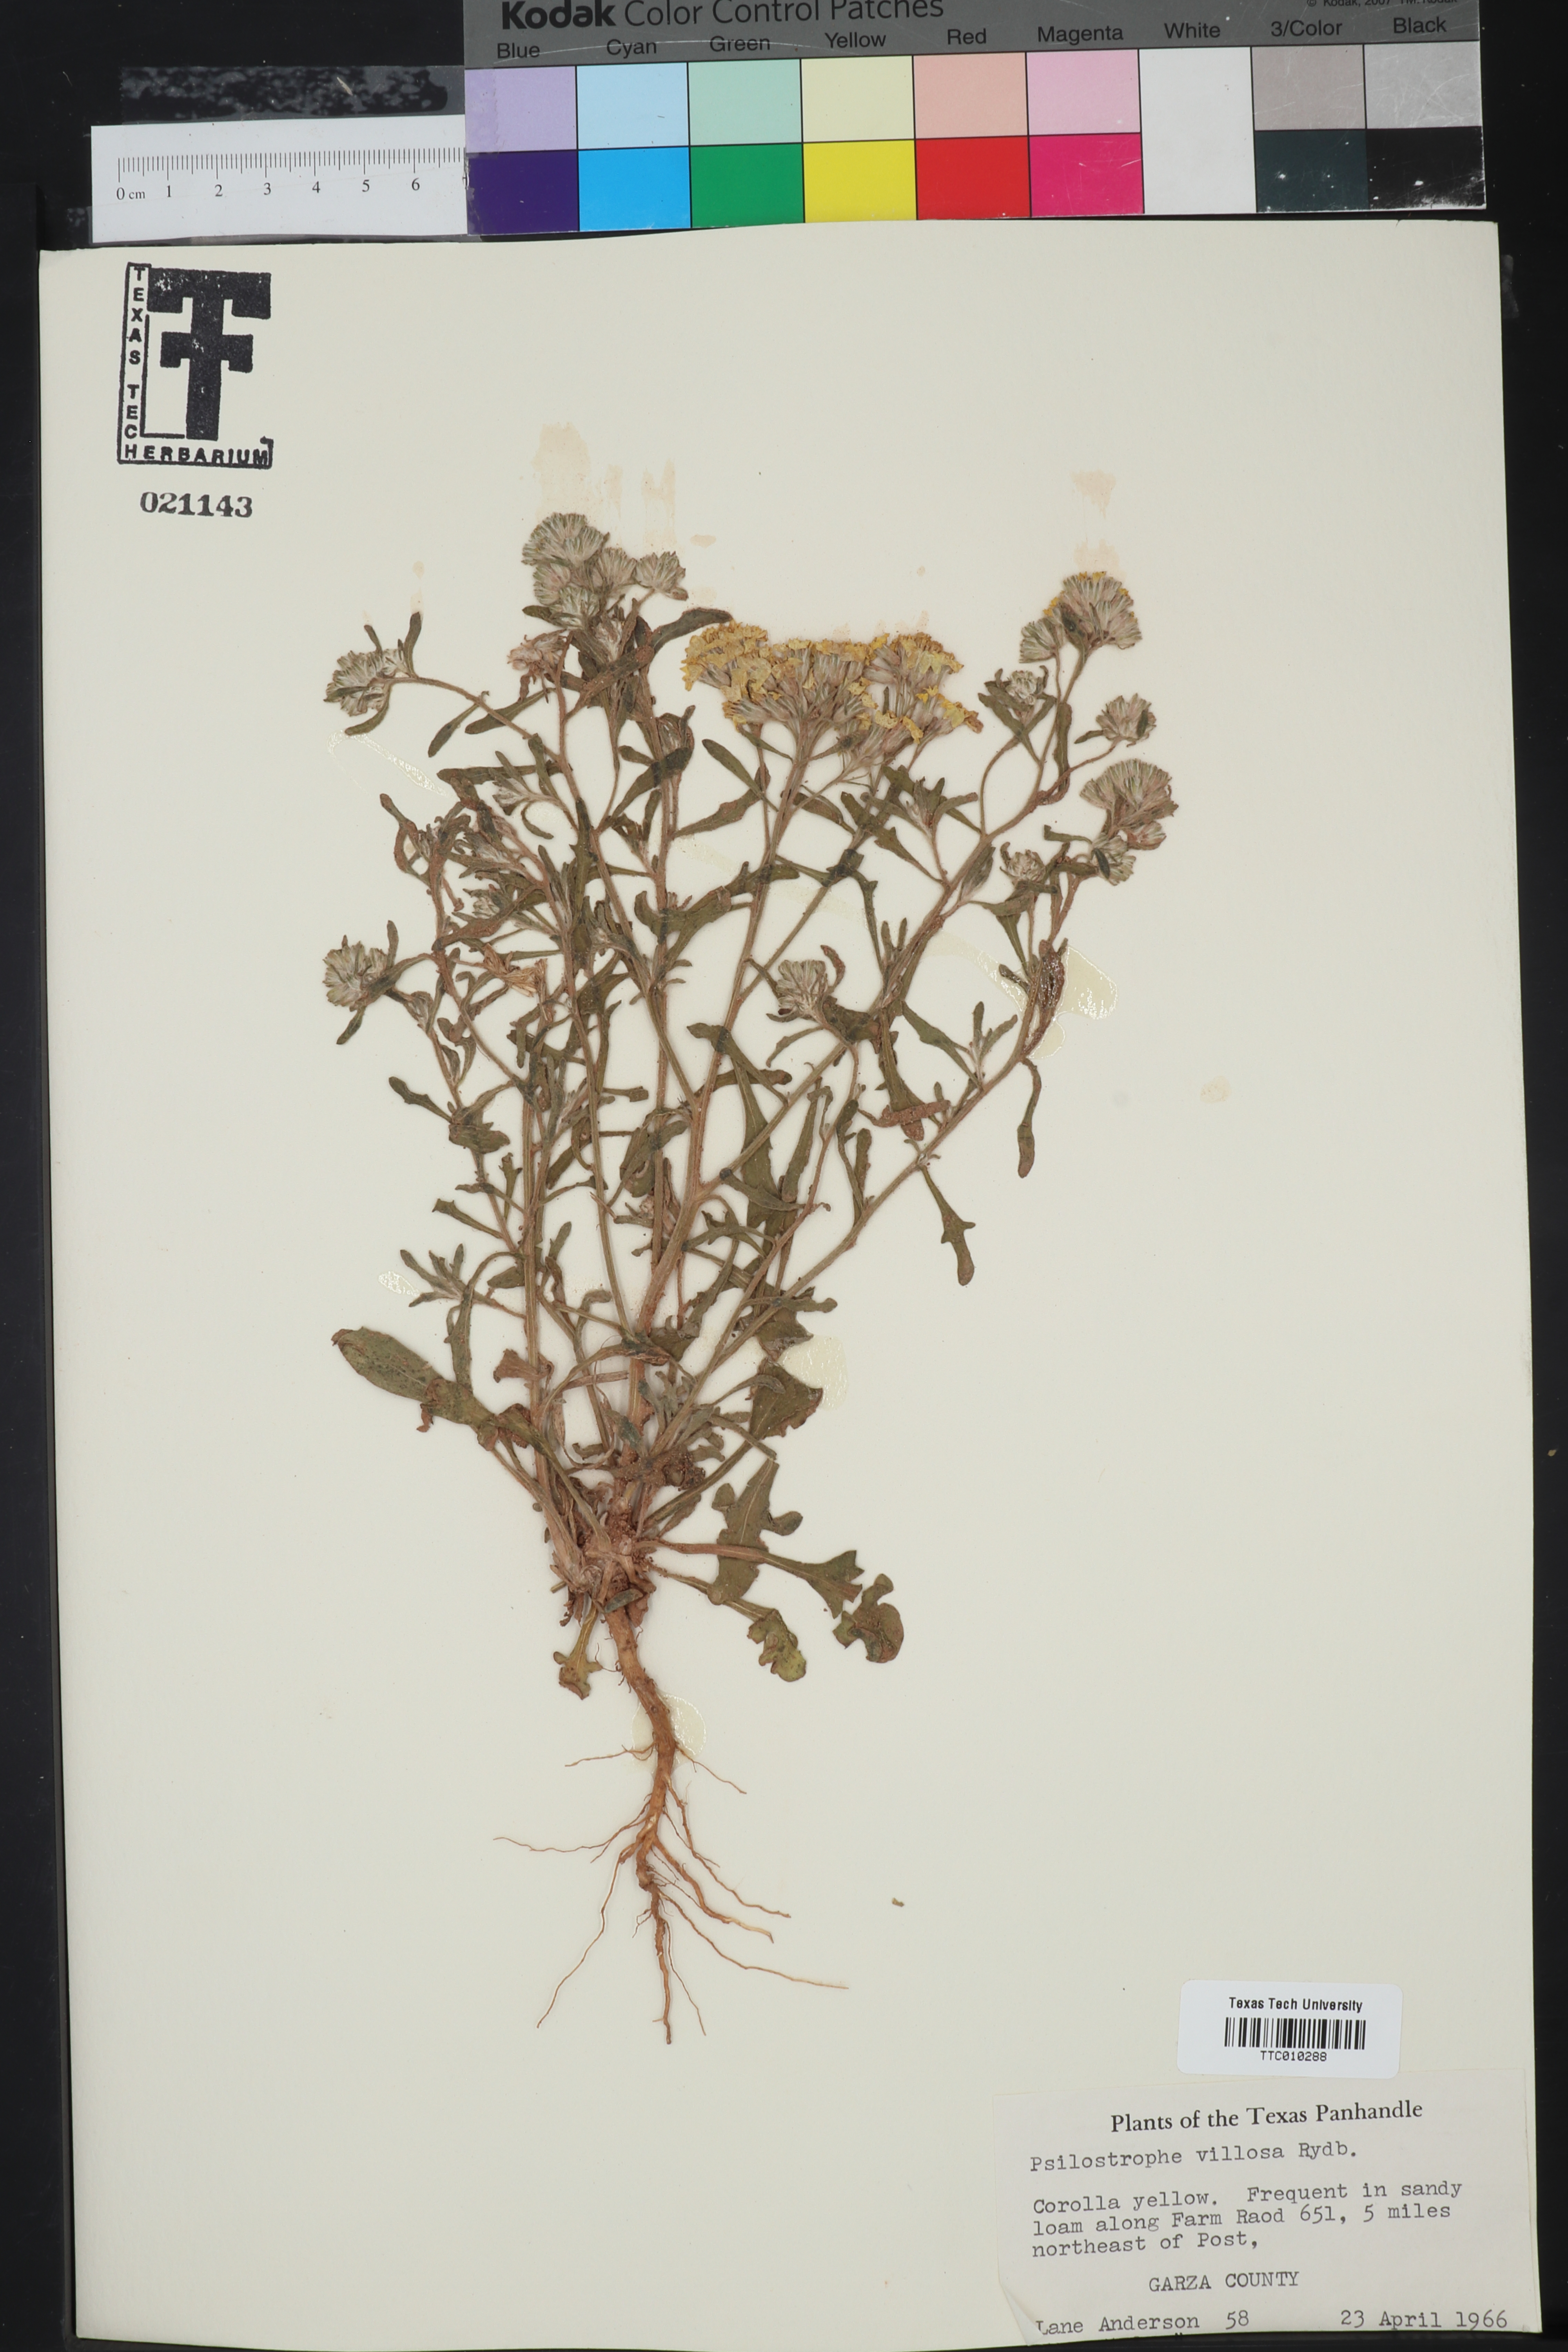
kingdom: Plantae
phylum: Tracheophyta
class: Magnoliopsida
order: Asterales
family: Asteraceae
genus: Psilostrophe
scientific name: Psilostrophe villosa
